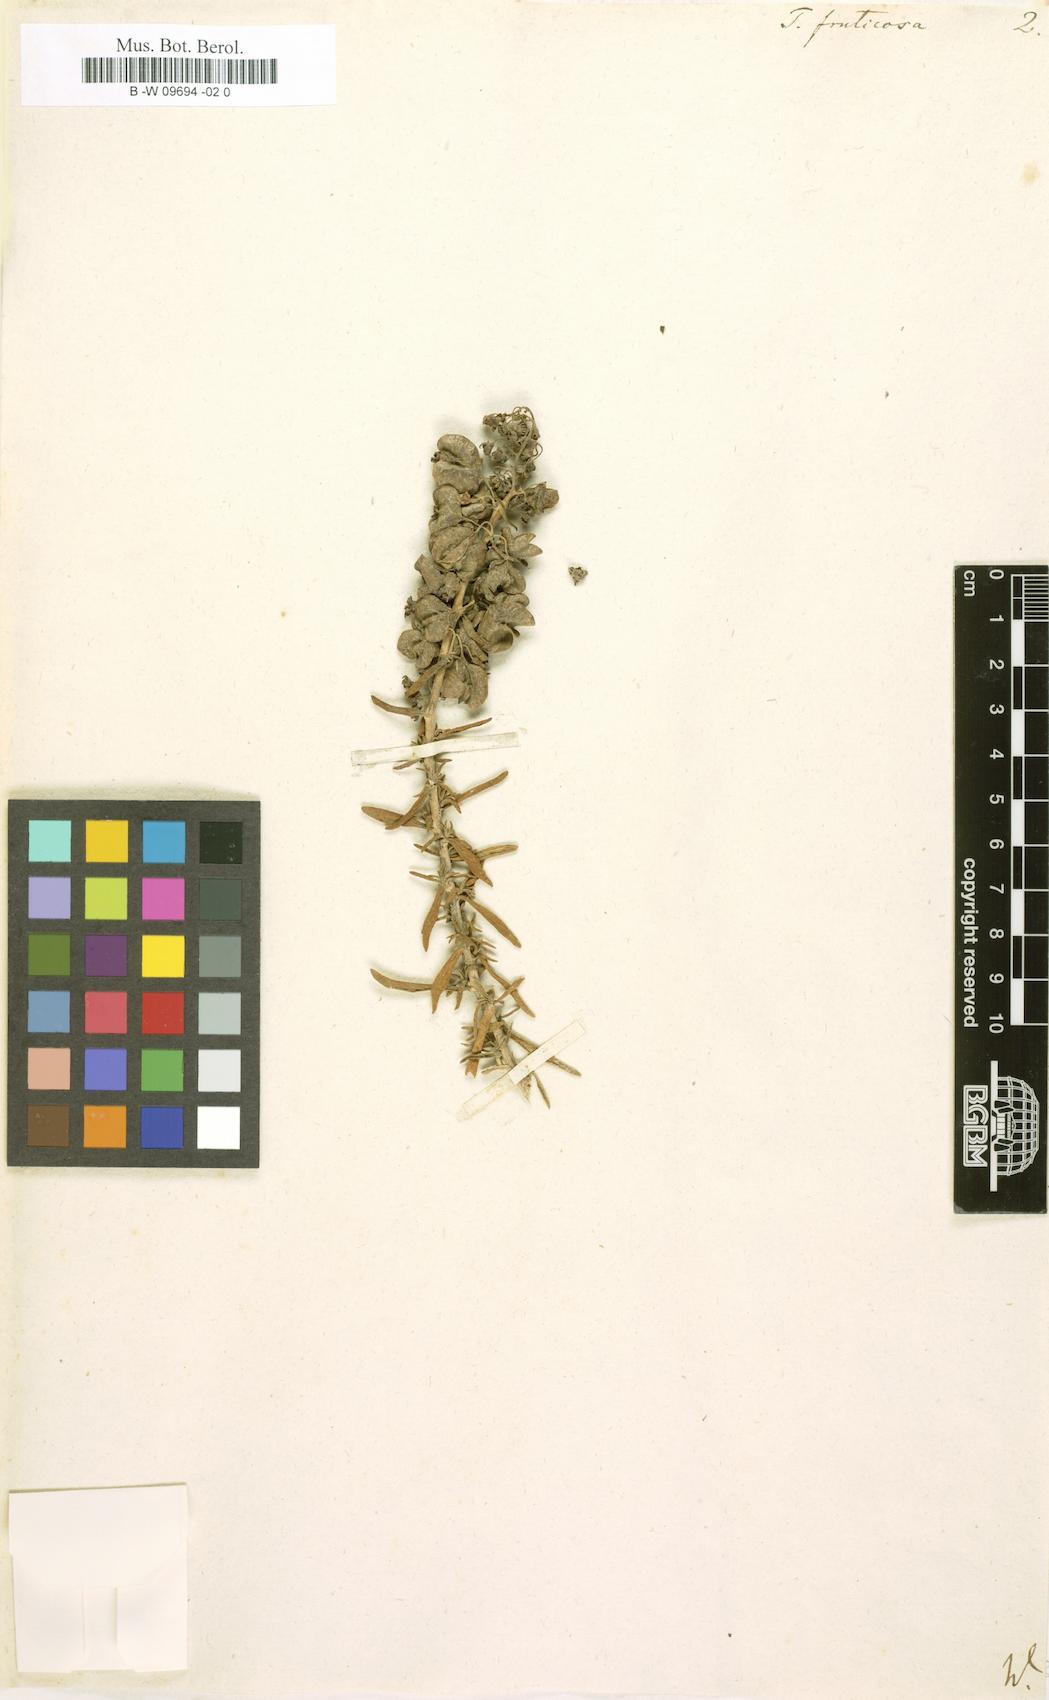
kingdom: Plantae
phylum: Tracheophyta
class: Magnoliopsida
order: Caryophyllales
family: Aizoaceae
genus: Tetragonia
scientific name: Tetragonia fruticosa
